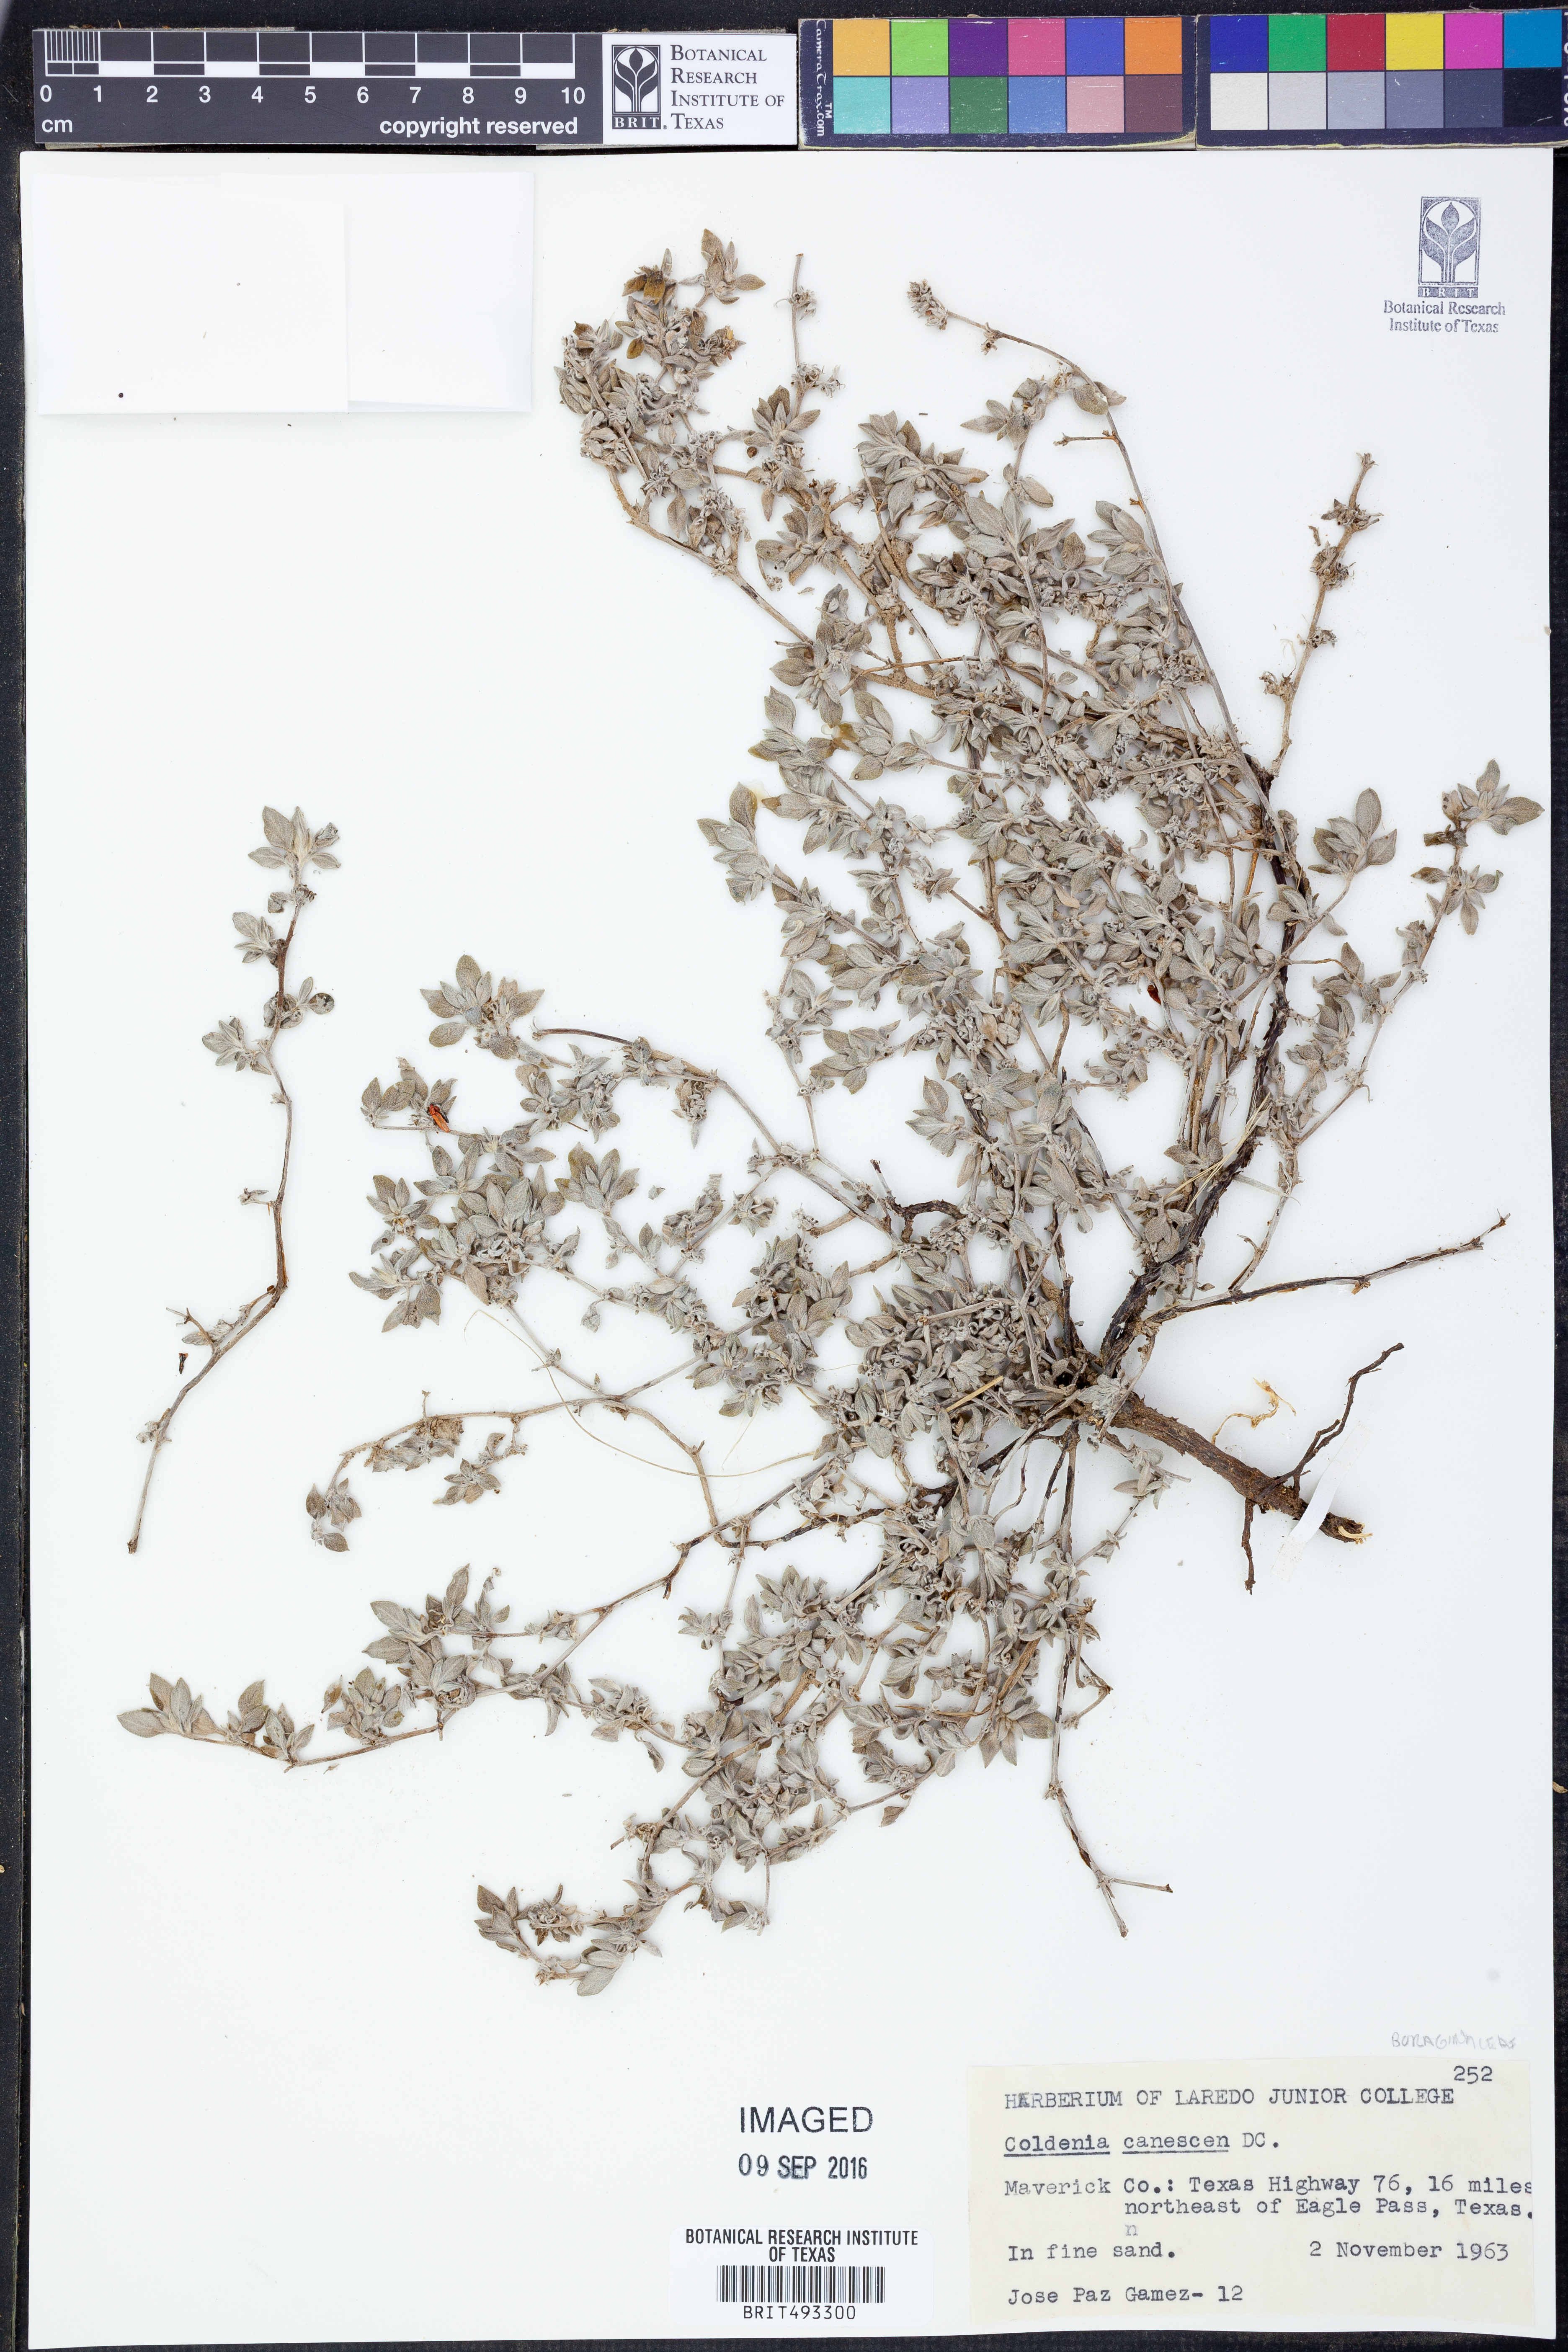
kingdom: Plantae
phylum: Tracheophyta
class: Magnoliopsida
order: Boraginales
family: Ehretiaceae
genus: Tiquilia
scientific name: Tiquilia canescens
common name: Hairy tiquilia
